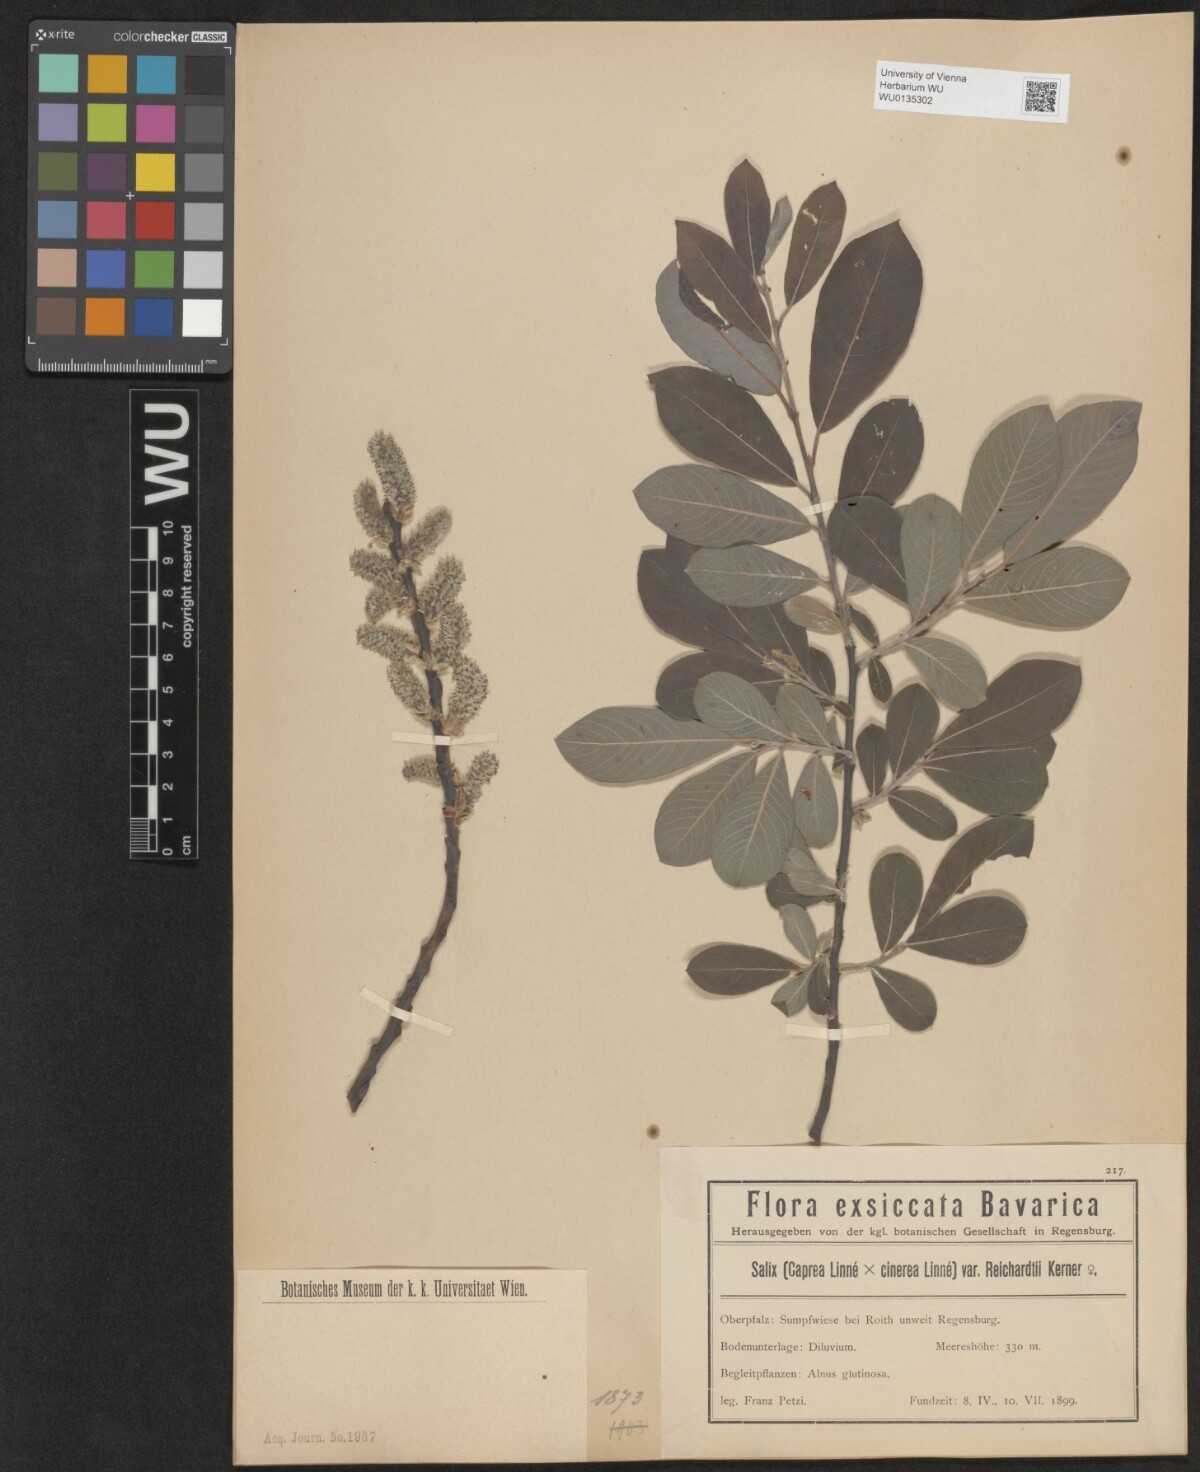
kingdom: Plantae
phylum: Tracheophyta
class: Magnoliopsida
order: Malpighiales
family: Salicaceae
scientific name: Salicaceae
